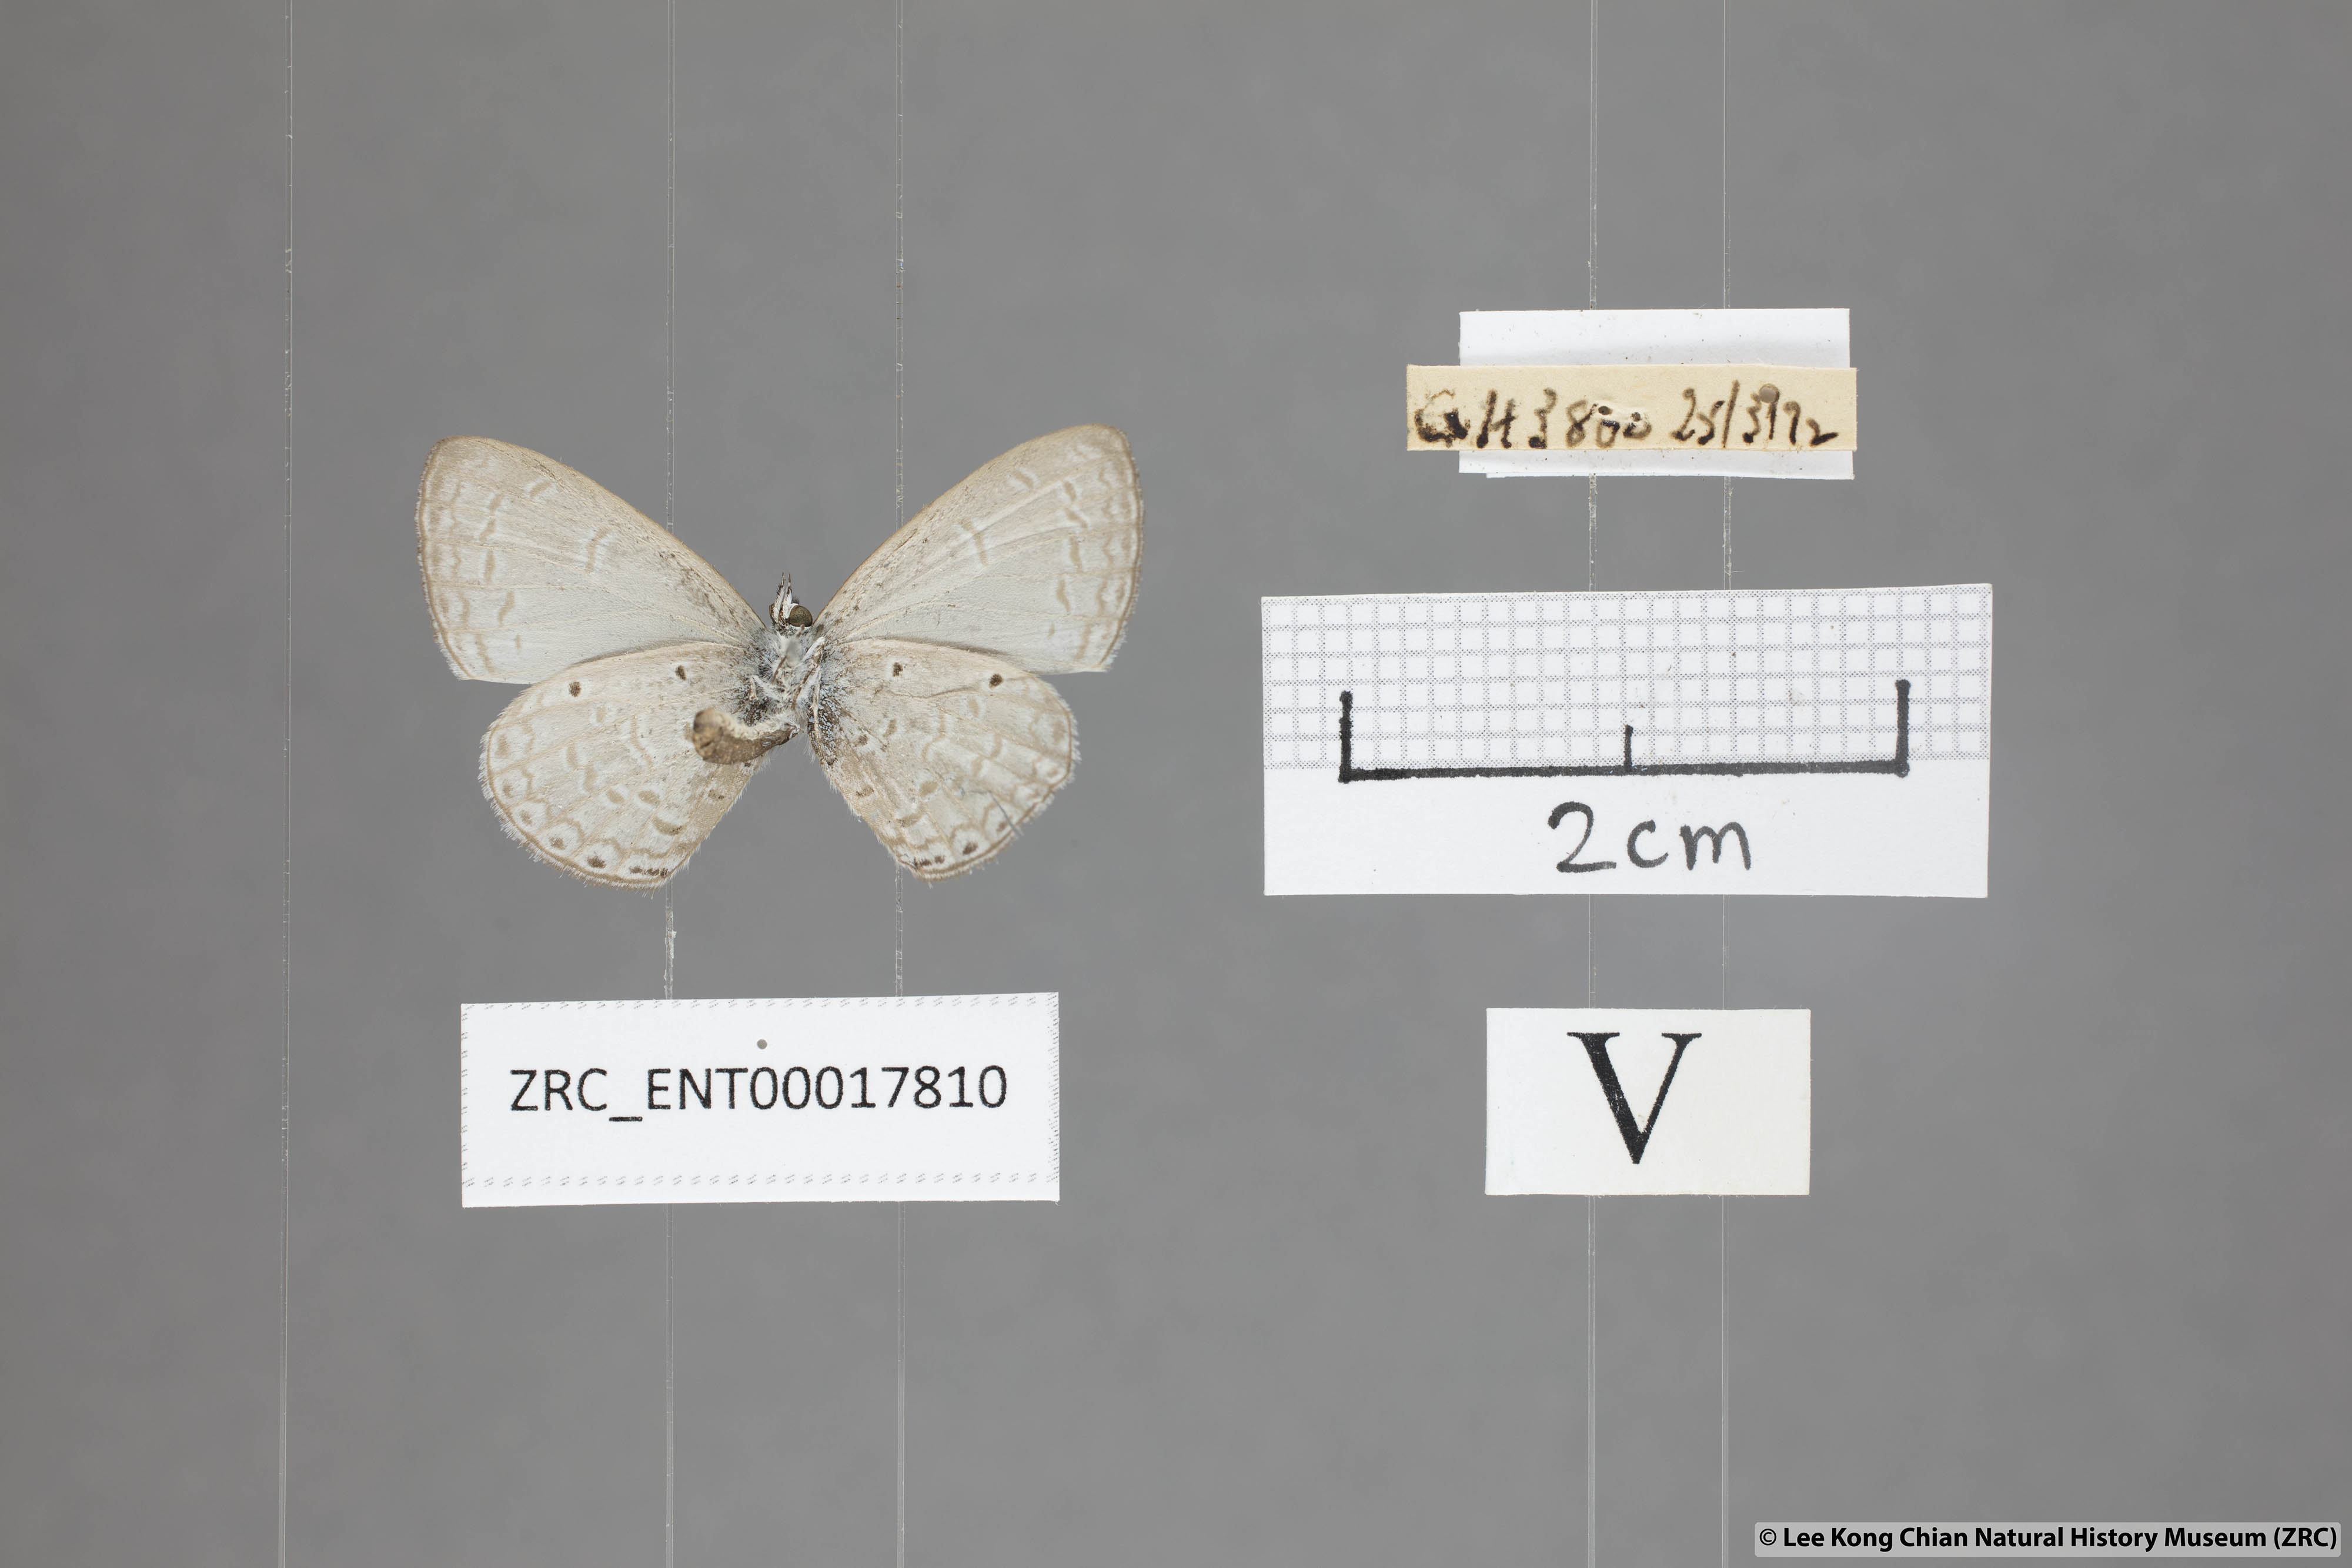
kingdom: Animalia
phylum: Arthropoda
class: Insecta
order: Lepidoptera
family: Lycaenidae
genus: Monodontides
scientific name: Monodontides
